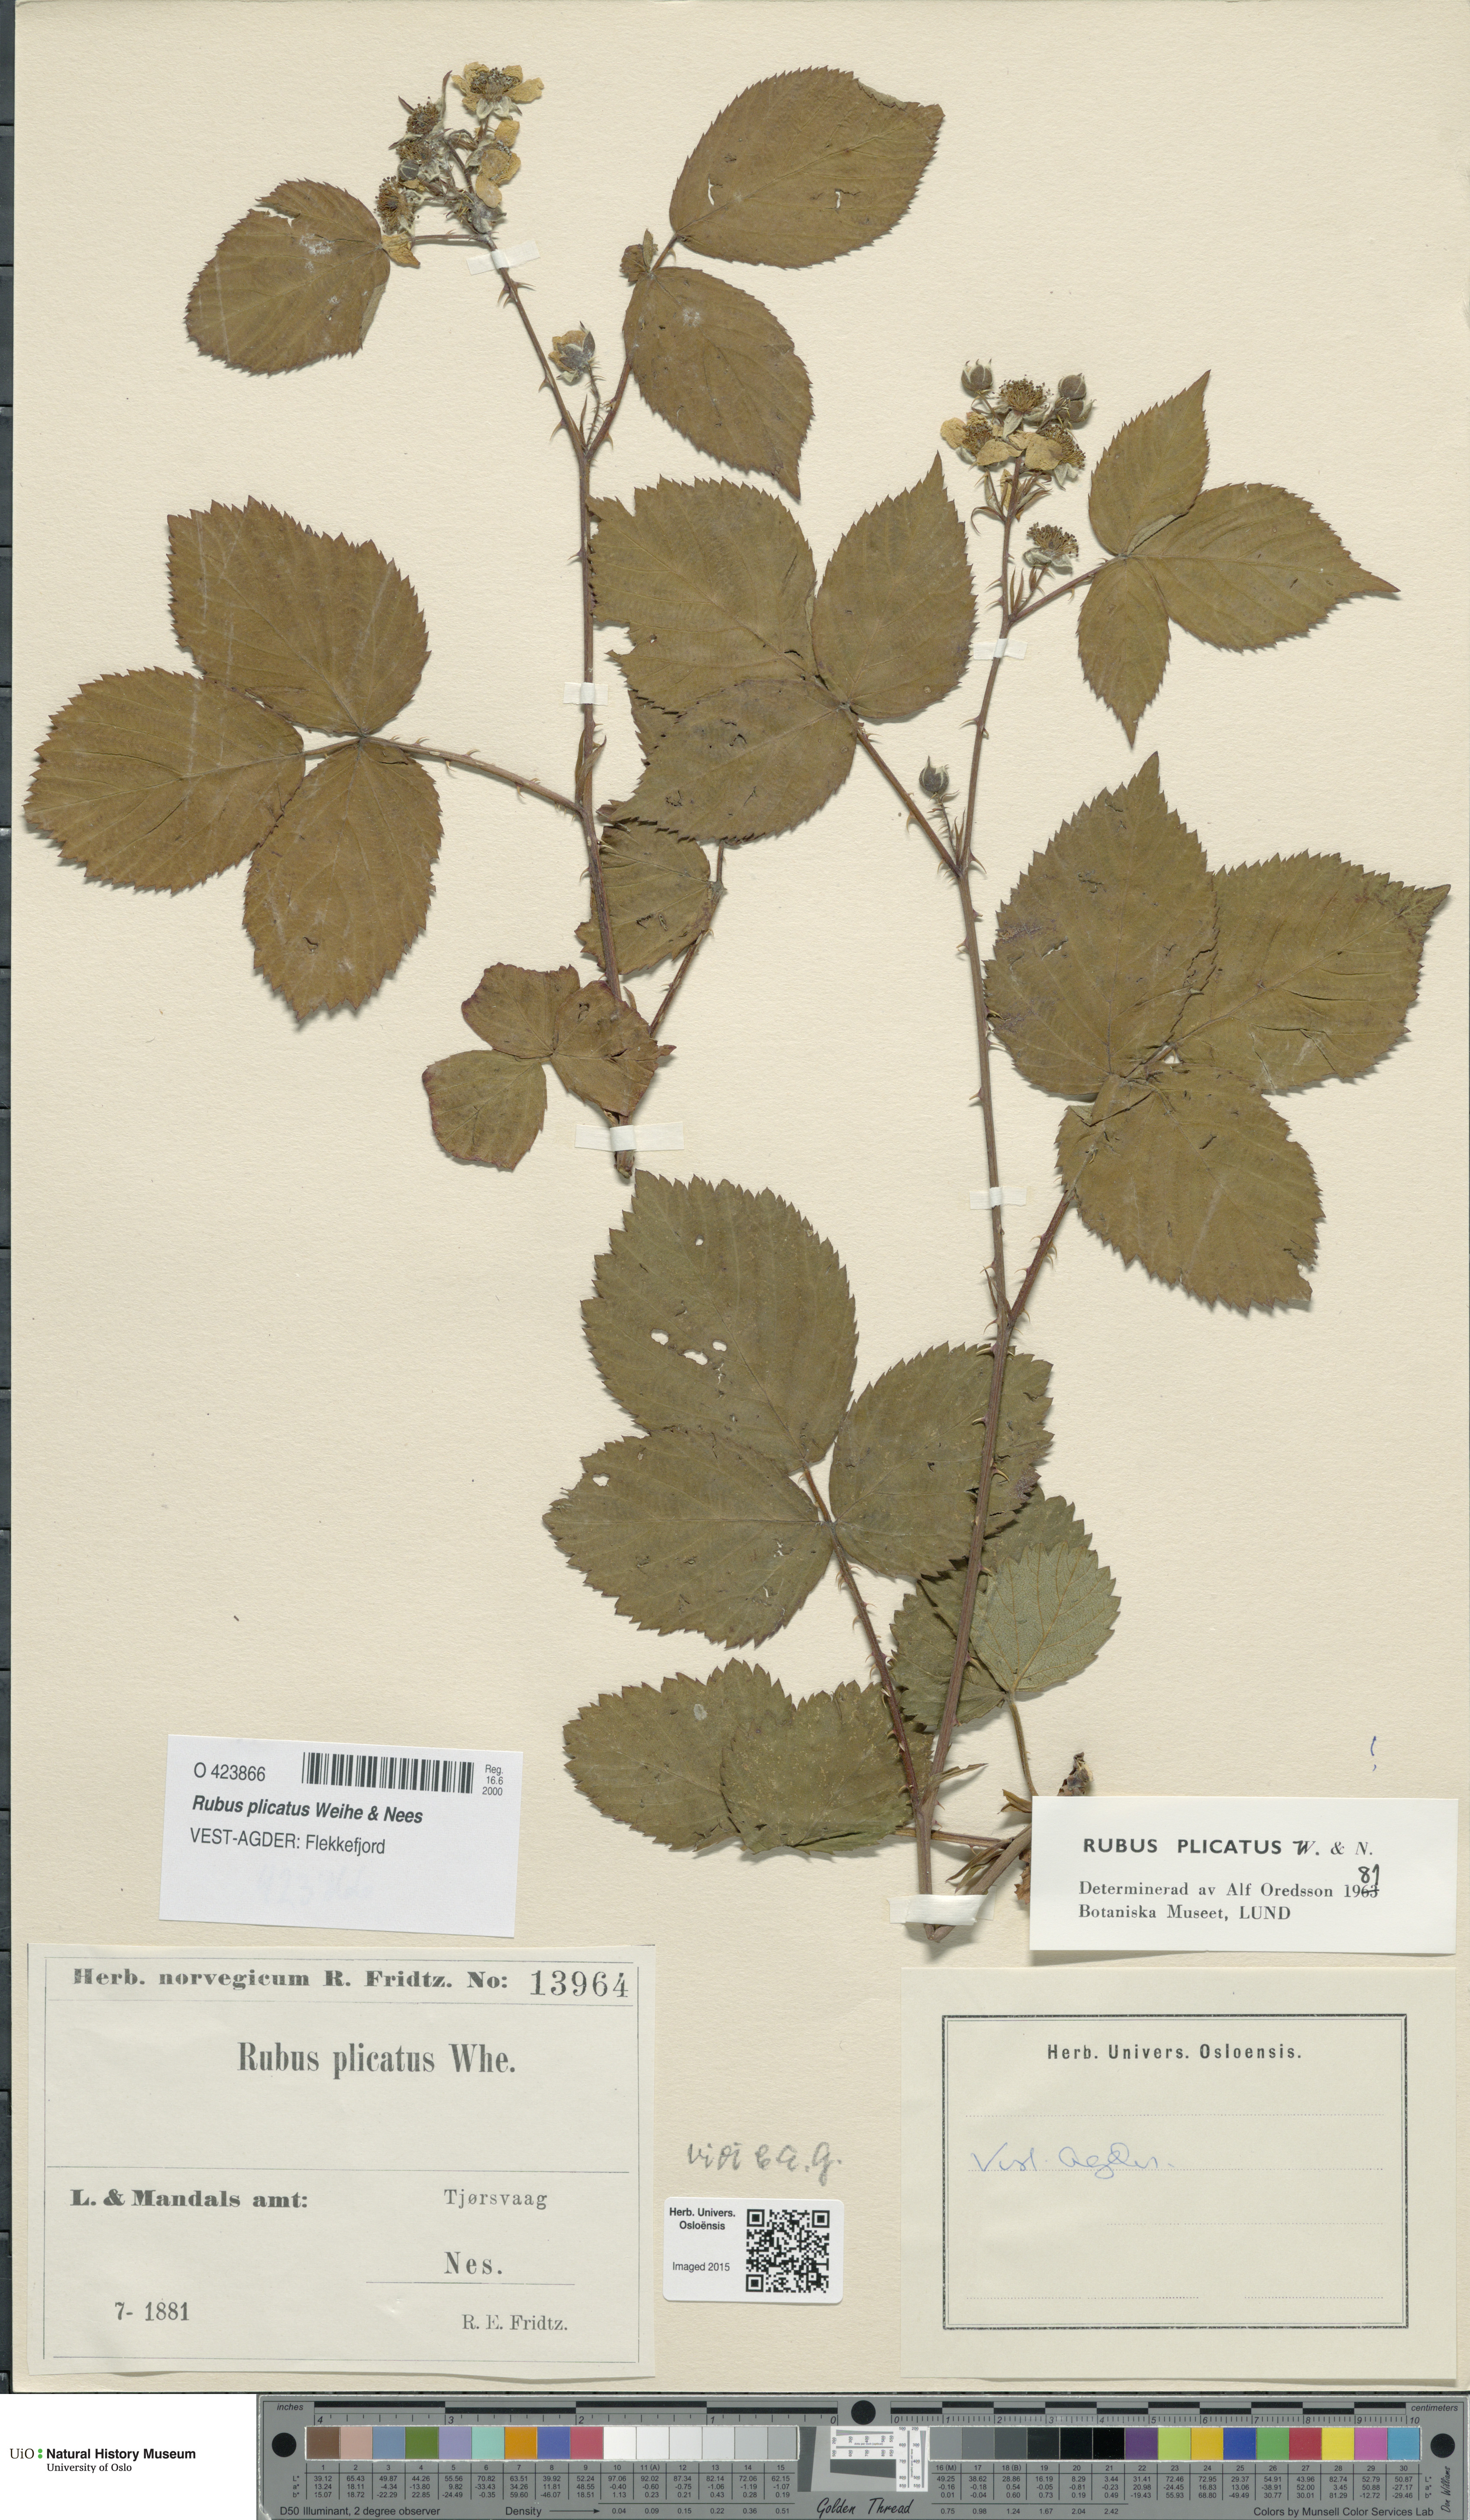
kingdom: Plantae
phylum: Tracheophyta
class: Magnoliopsida
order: Rosales
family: Rosaceae
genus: Rubus
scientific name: Rubus fruticosus
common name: Blackberry, bramble
